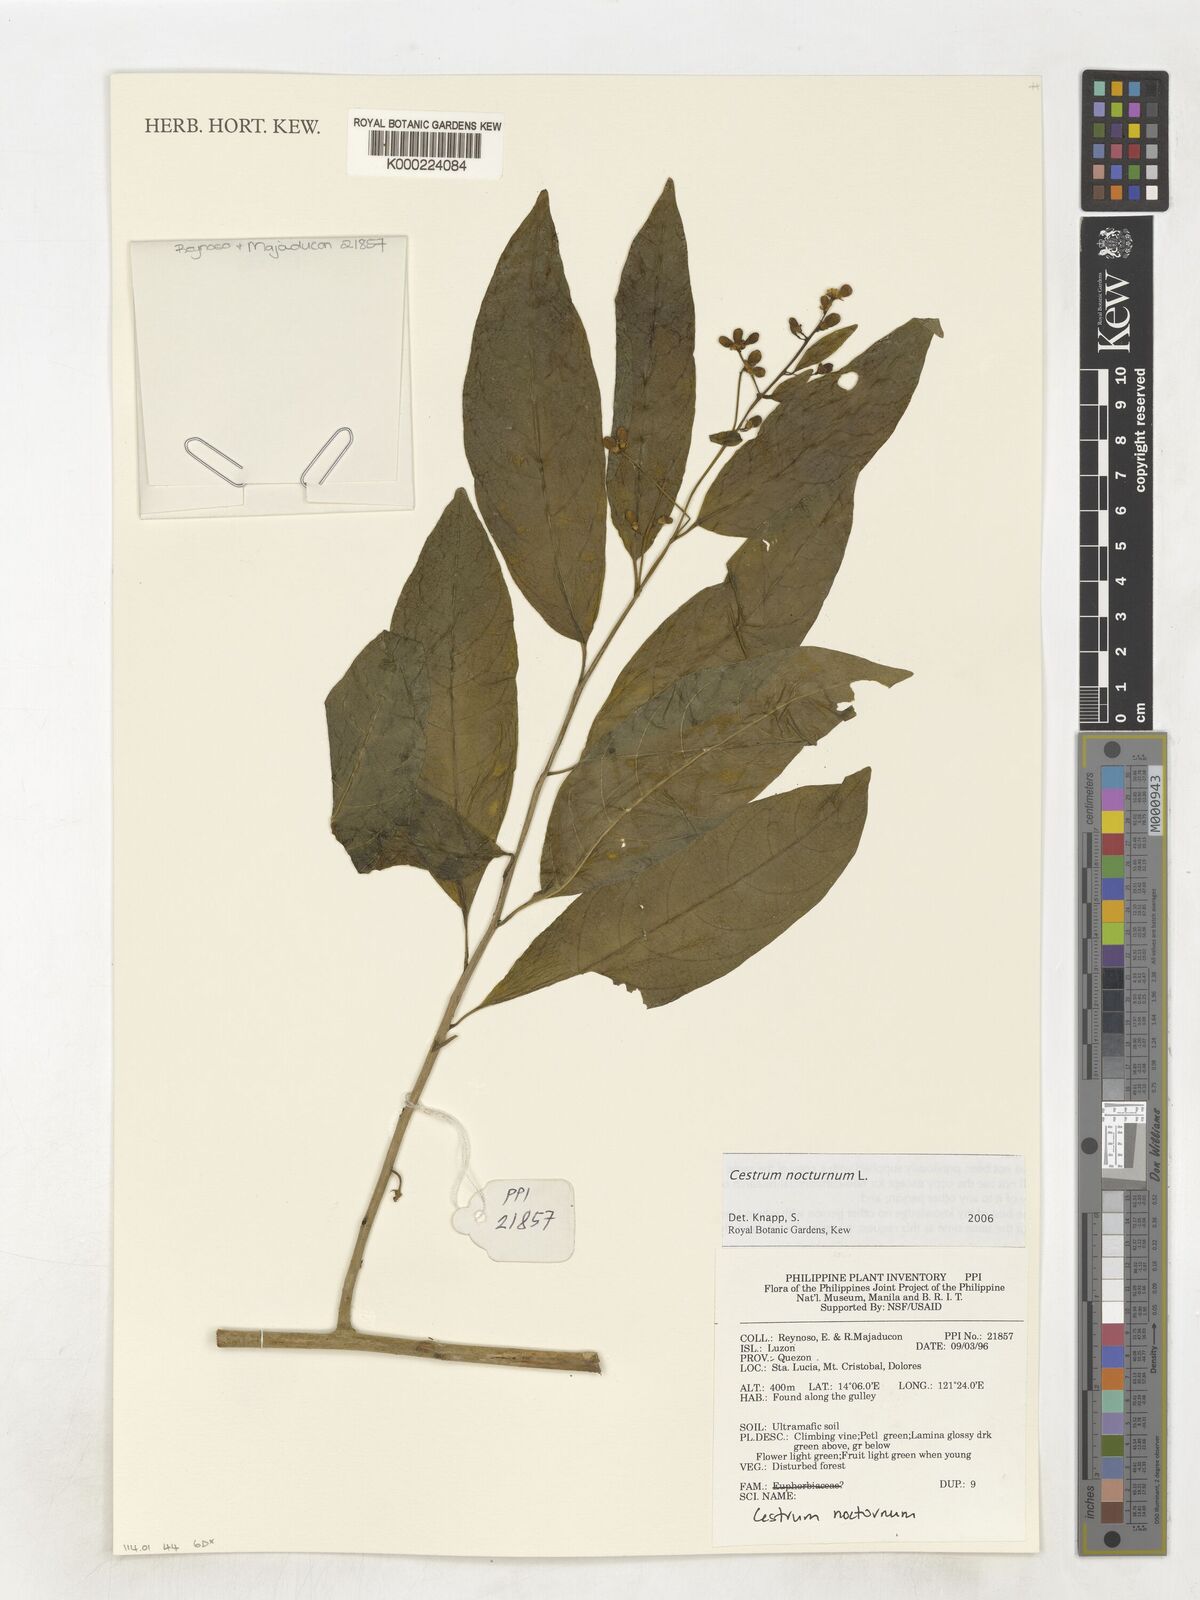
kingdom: Plantae
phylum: Tracheophyta
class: Magnoliopsida
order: Solanales
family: Solanaceae
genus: Cestrum
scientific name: Cestrum nocturnum
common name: Night jessamine
